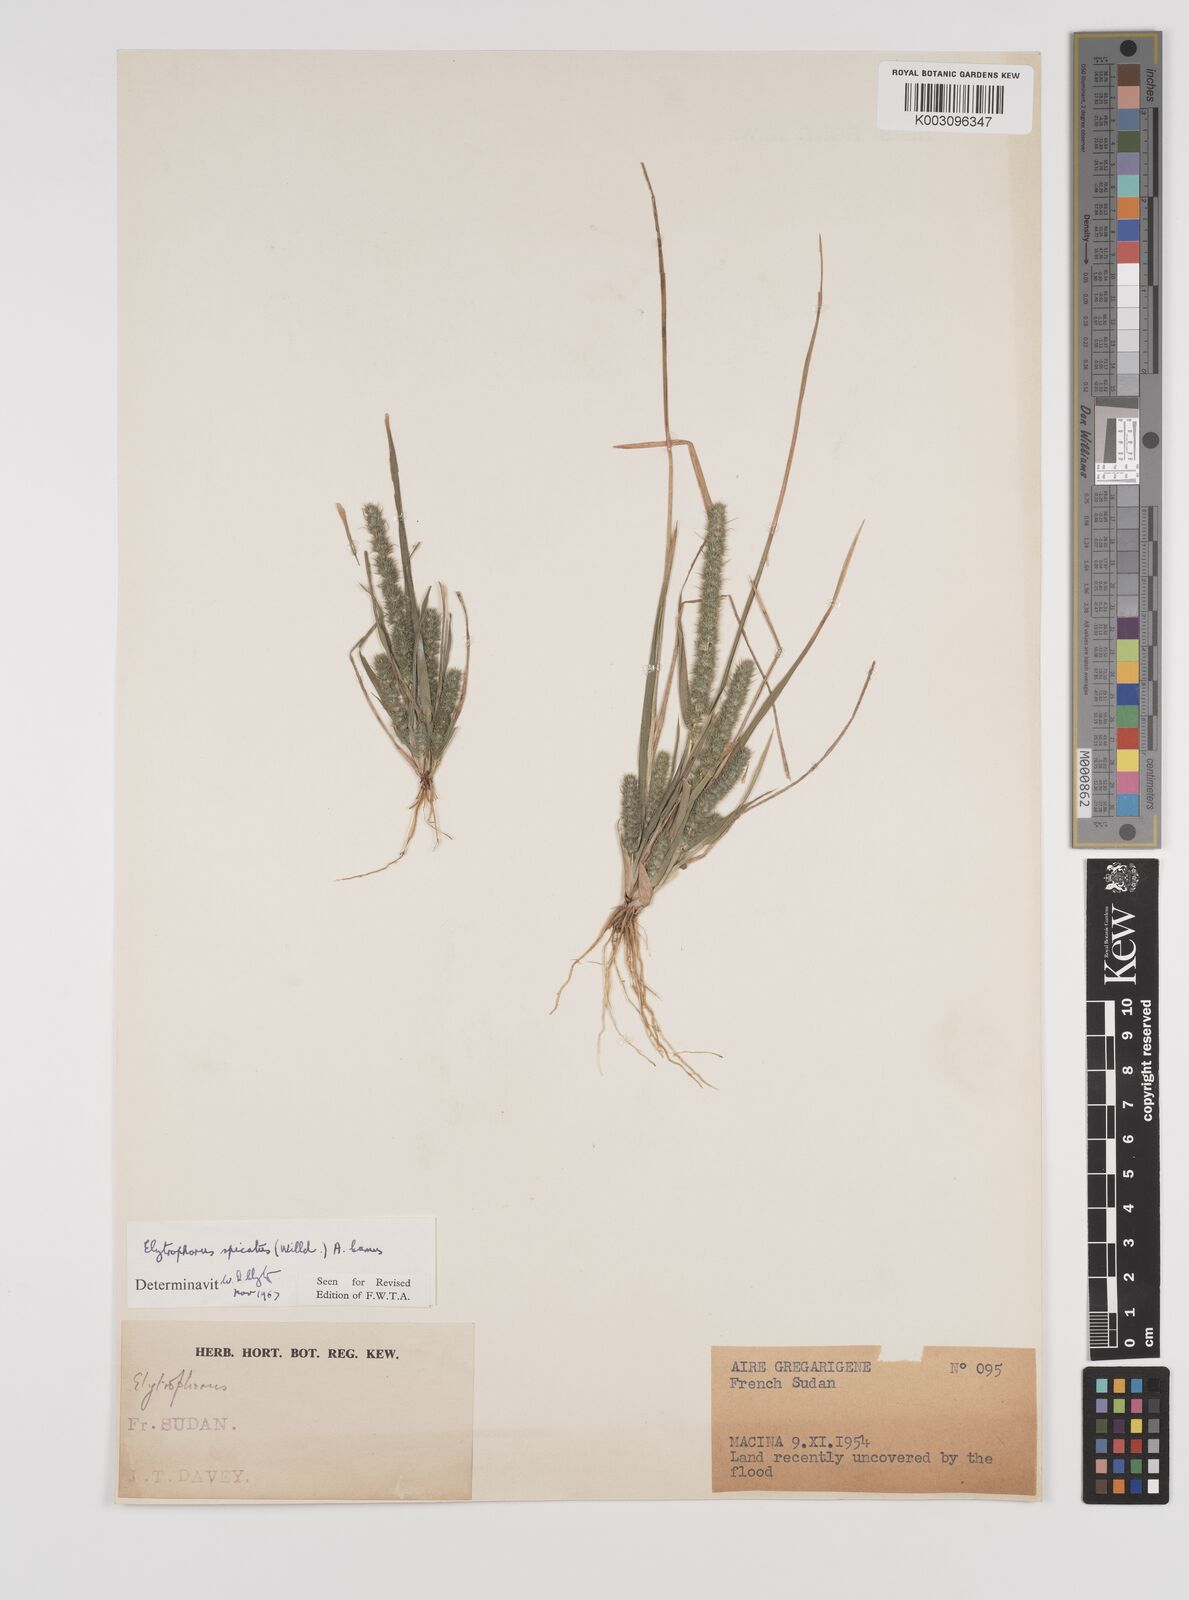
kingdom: Plantae
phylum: Tracheophyta
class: Liliopsida
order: Poales
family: Poaceae
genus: Elytrophorus
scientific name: Elytrophorus spicatus
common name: Spike grass
